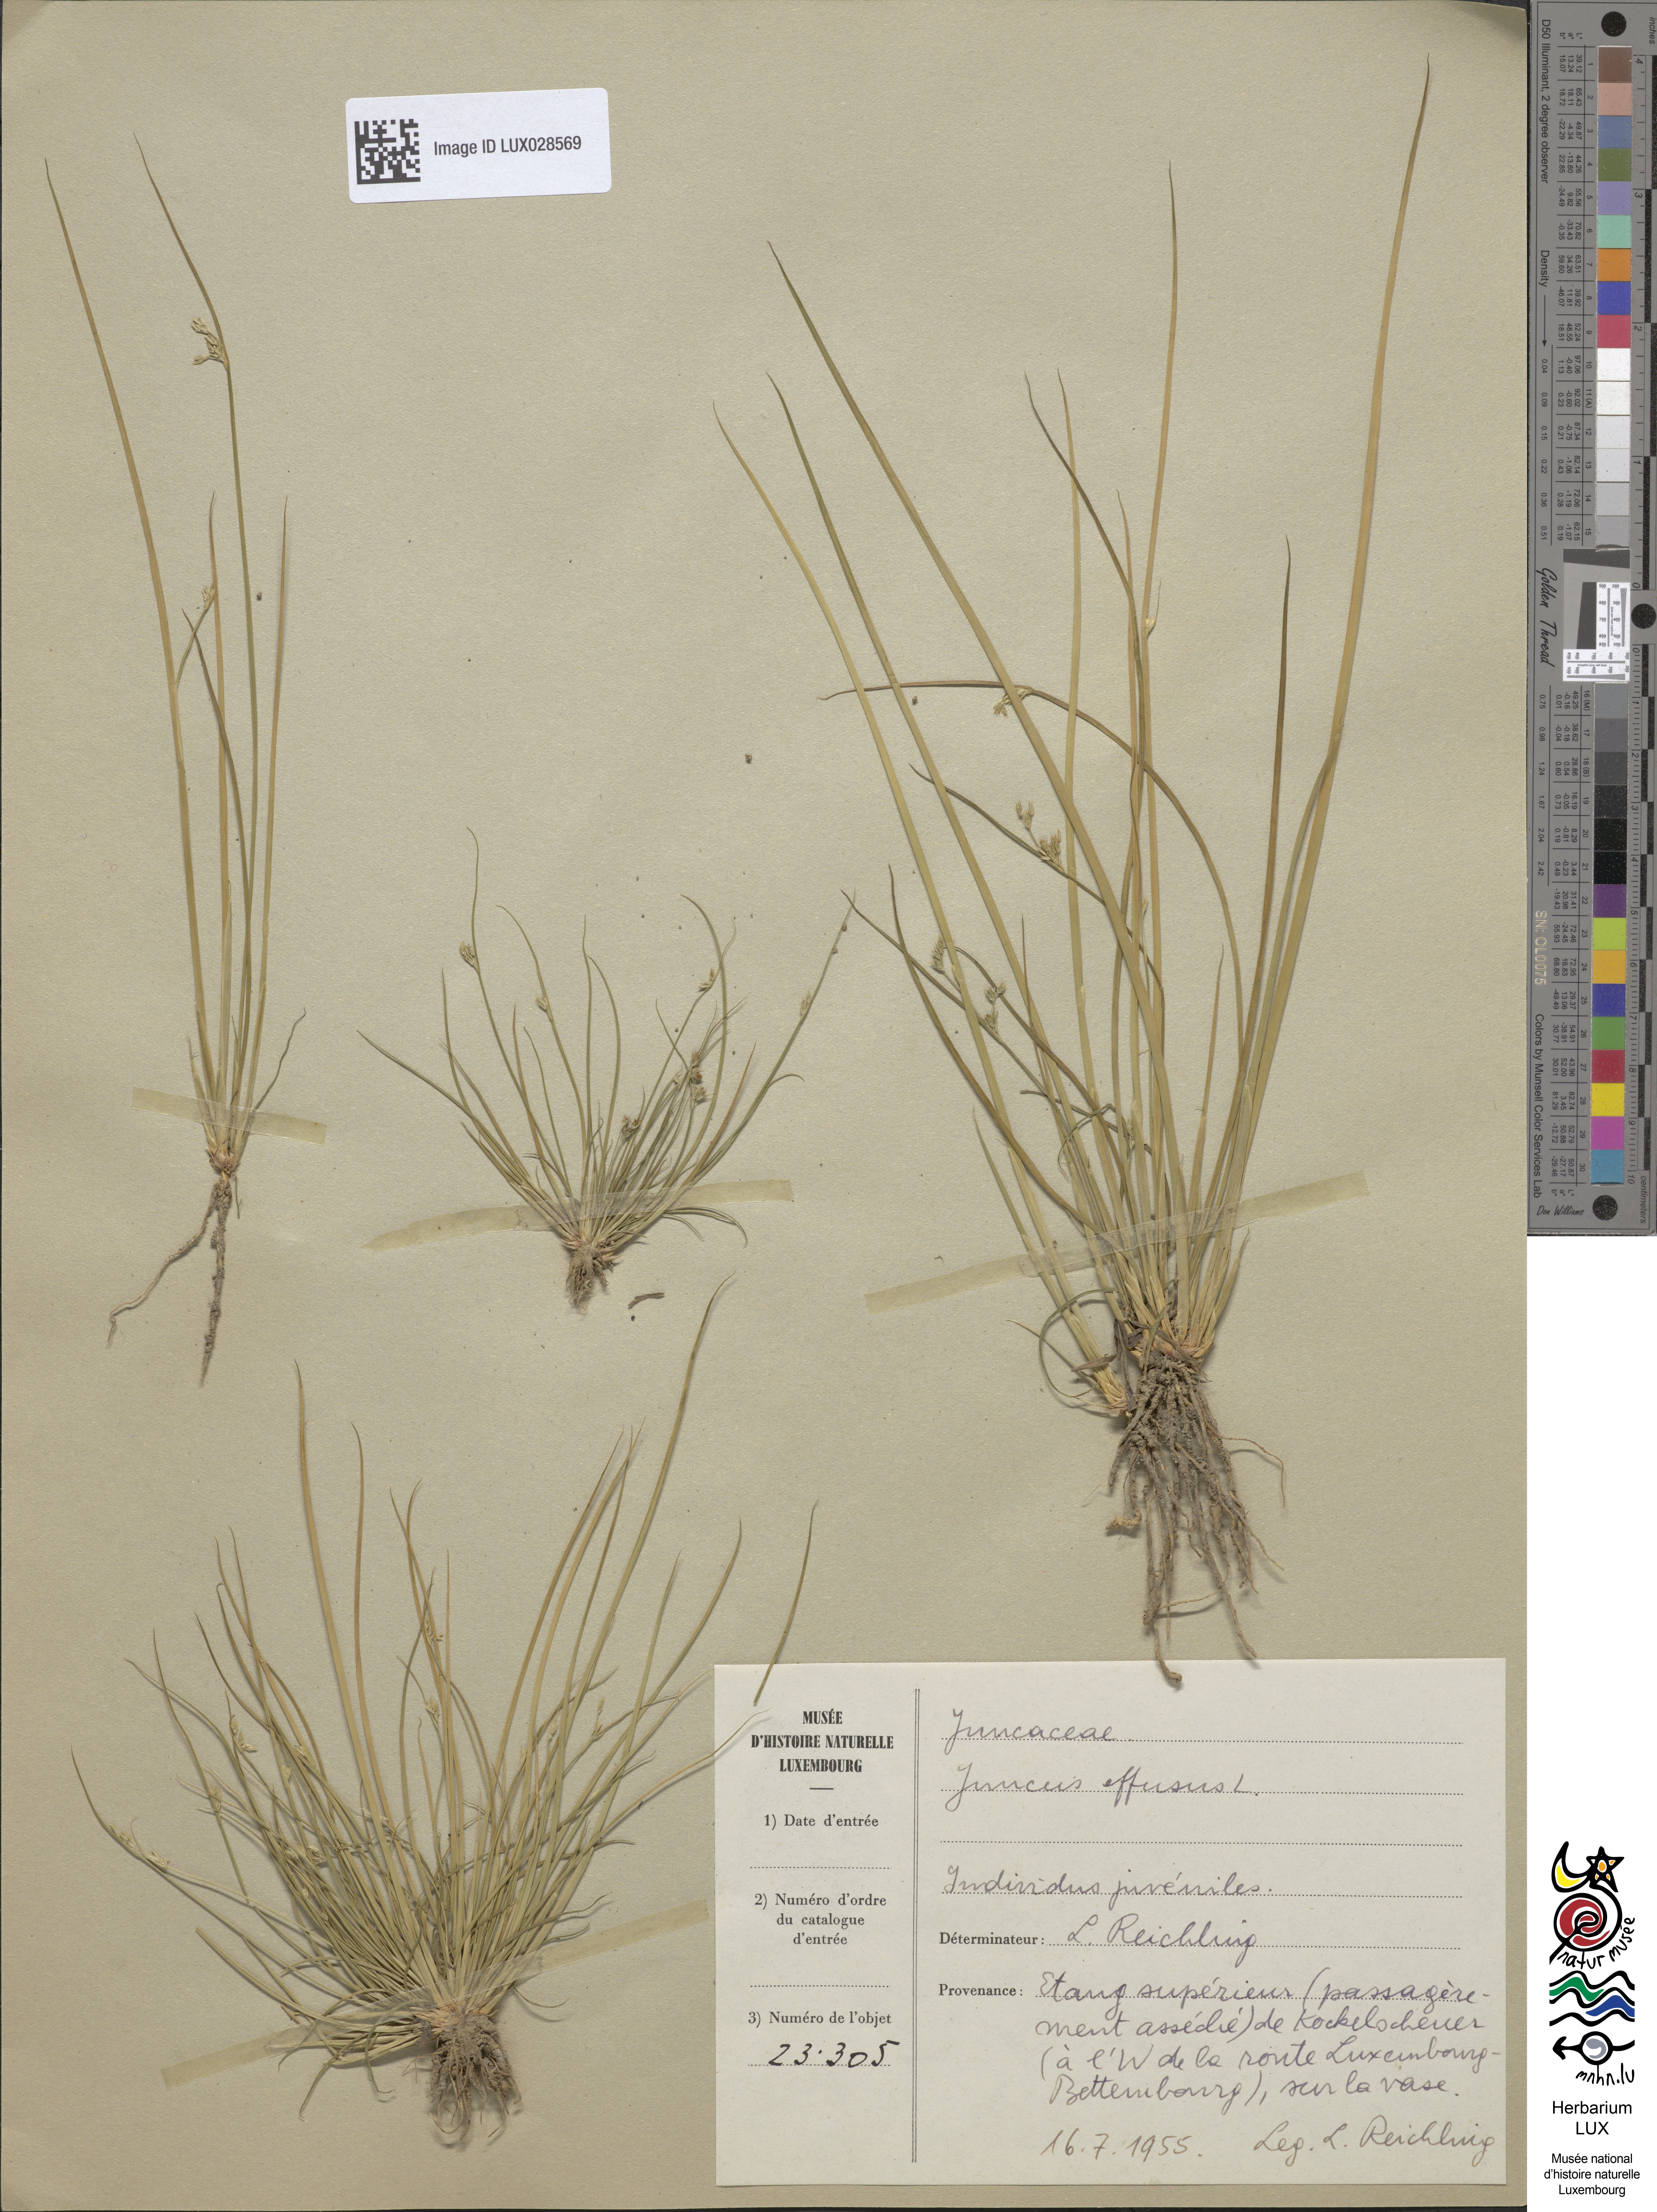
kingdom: Plantae
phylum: Tracheophyta
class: Liliopsida
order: Poales
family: Juncaceae
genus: Juncus
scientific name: Juncus effusus
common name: Soft rush
